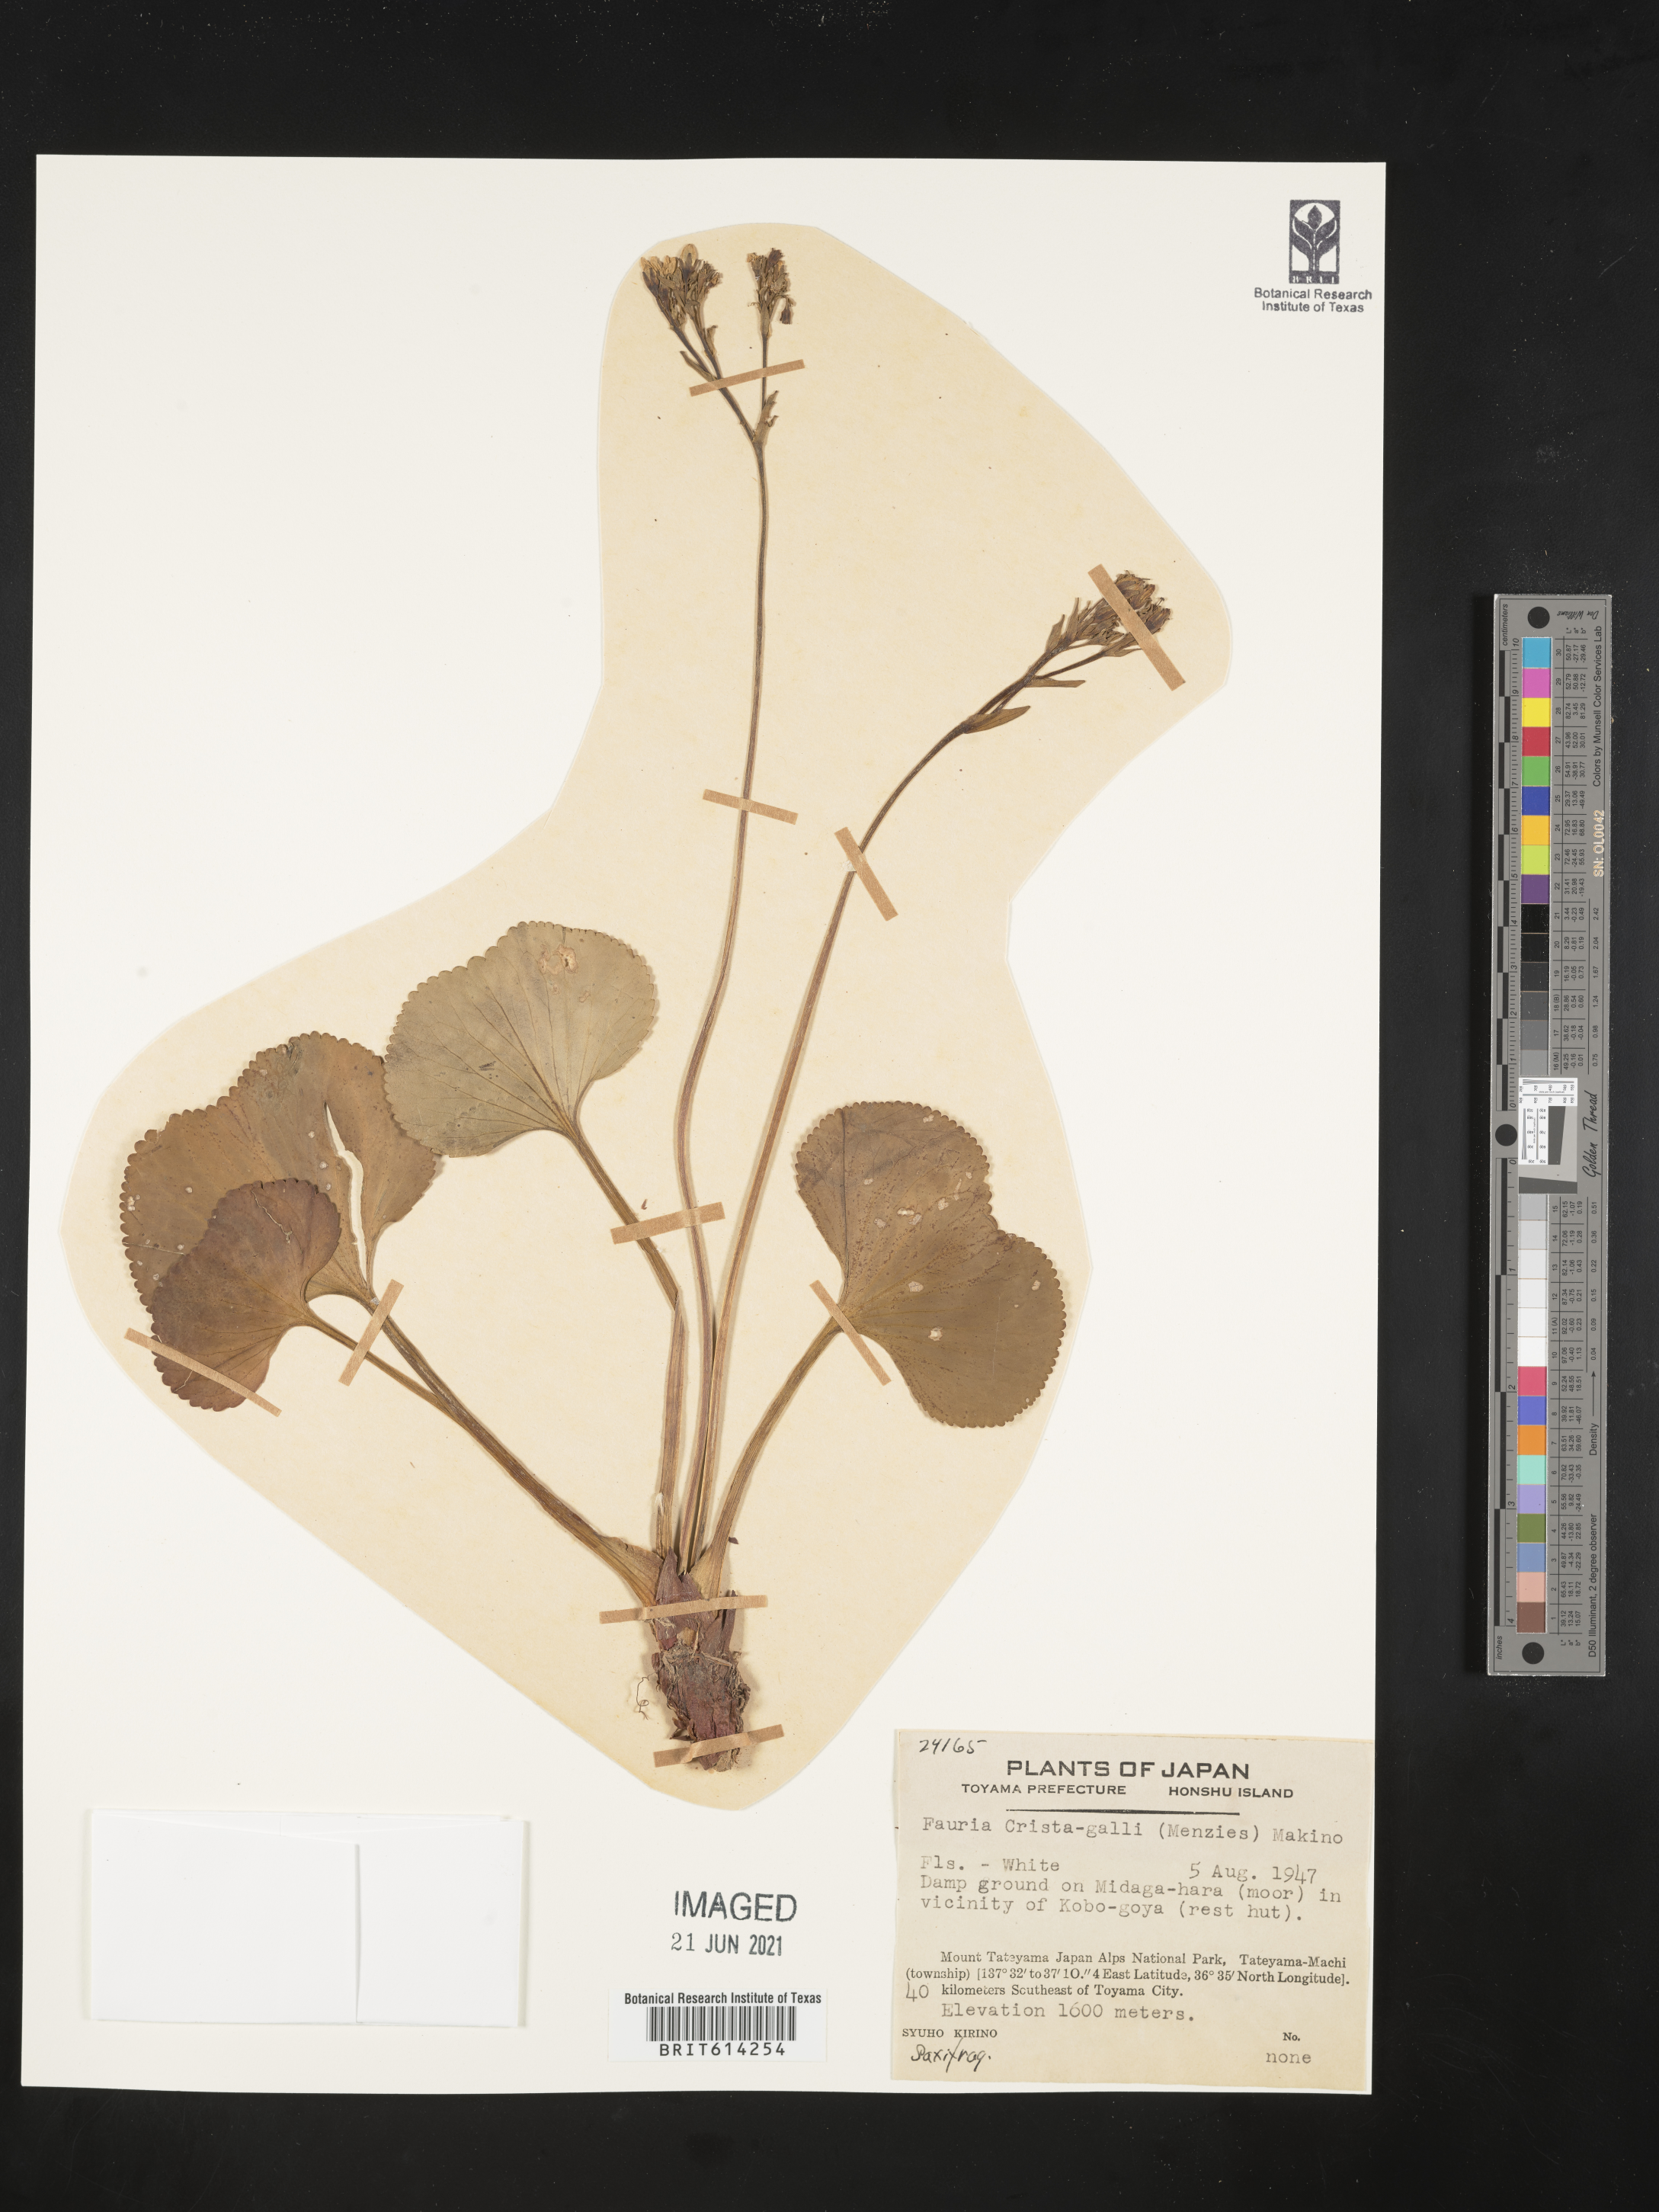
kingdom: Plantae
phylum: Tracheophyta
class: Magnoliopsida
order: Asterales
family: Menyanthaceae
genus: Nephrophyllidium
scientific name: Nephrophyllidium crista-galli
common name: Deer-cabbage
